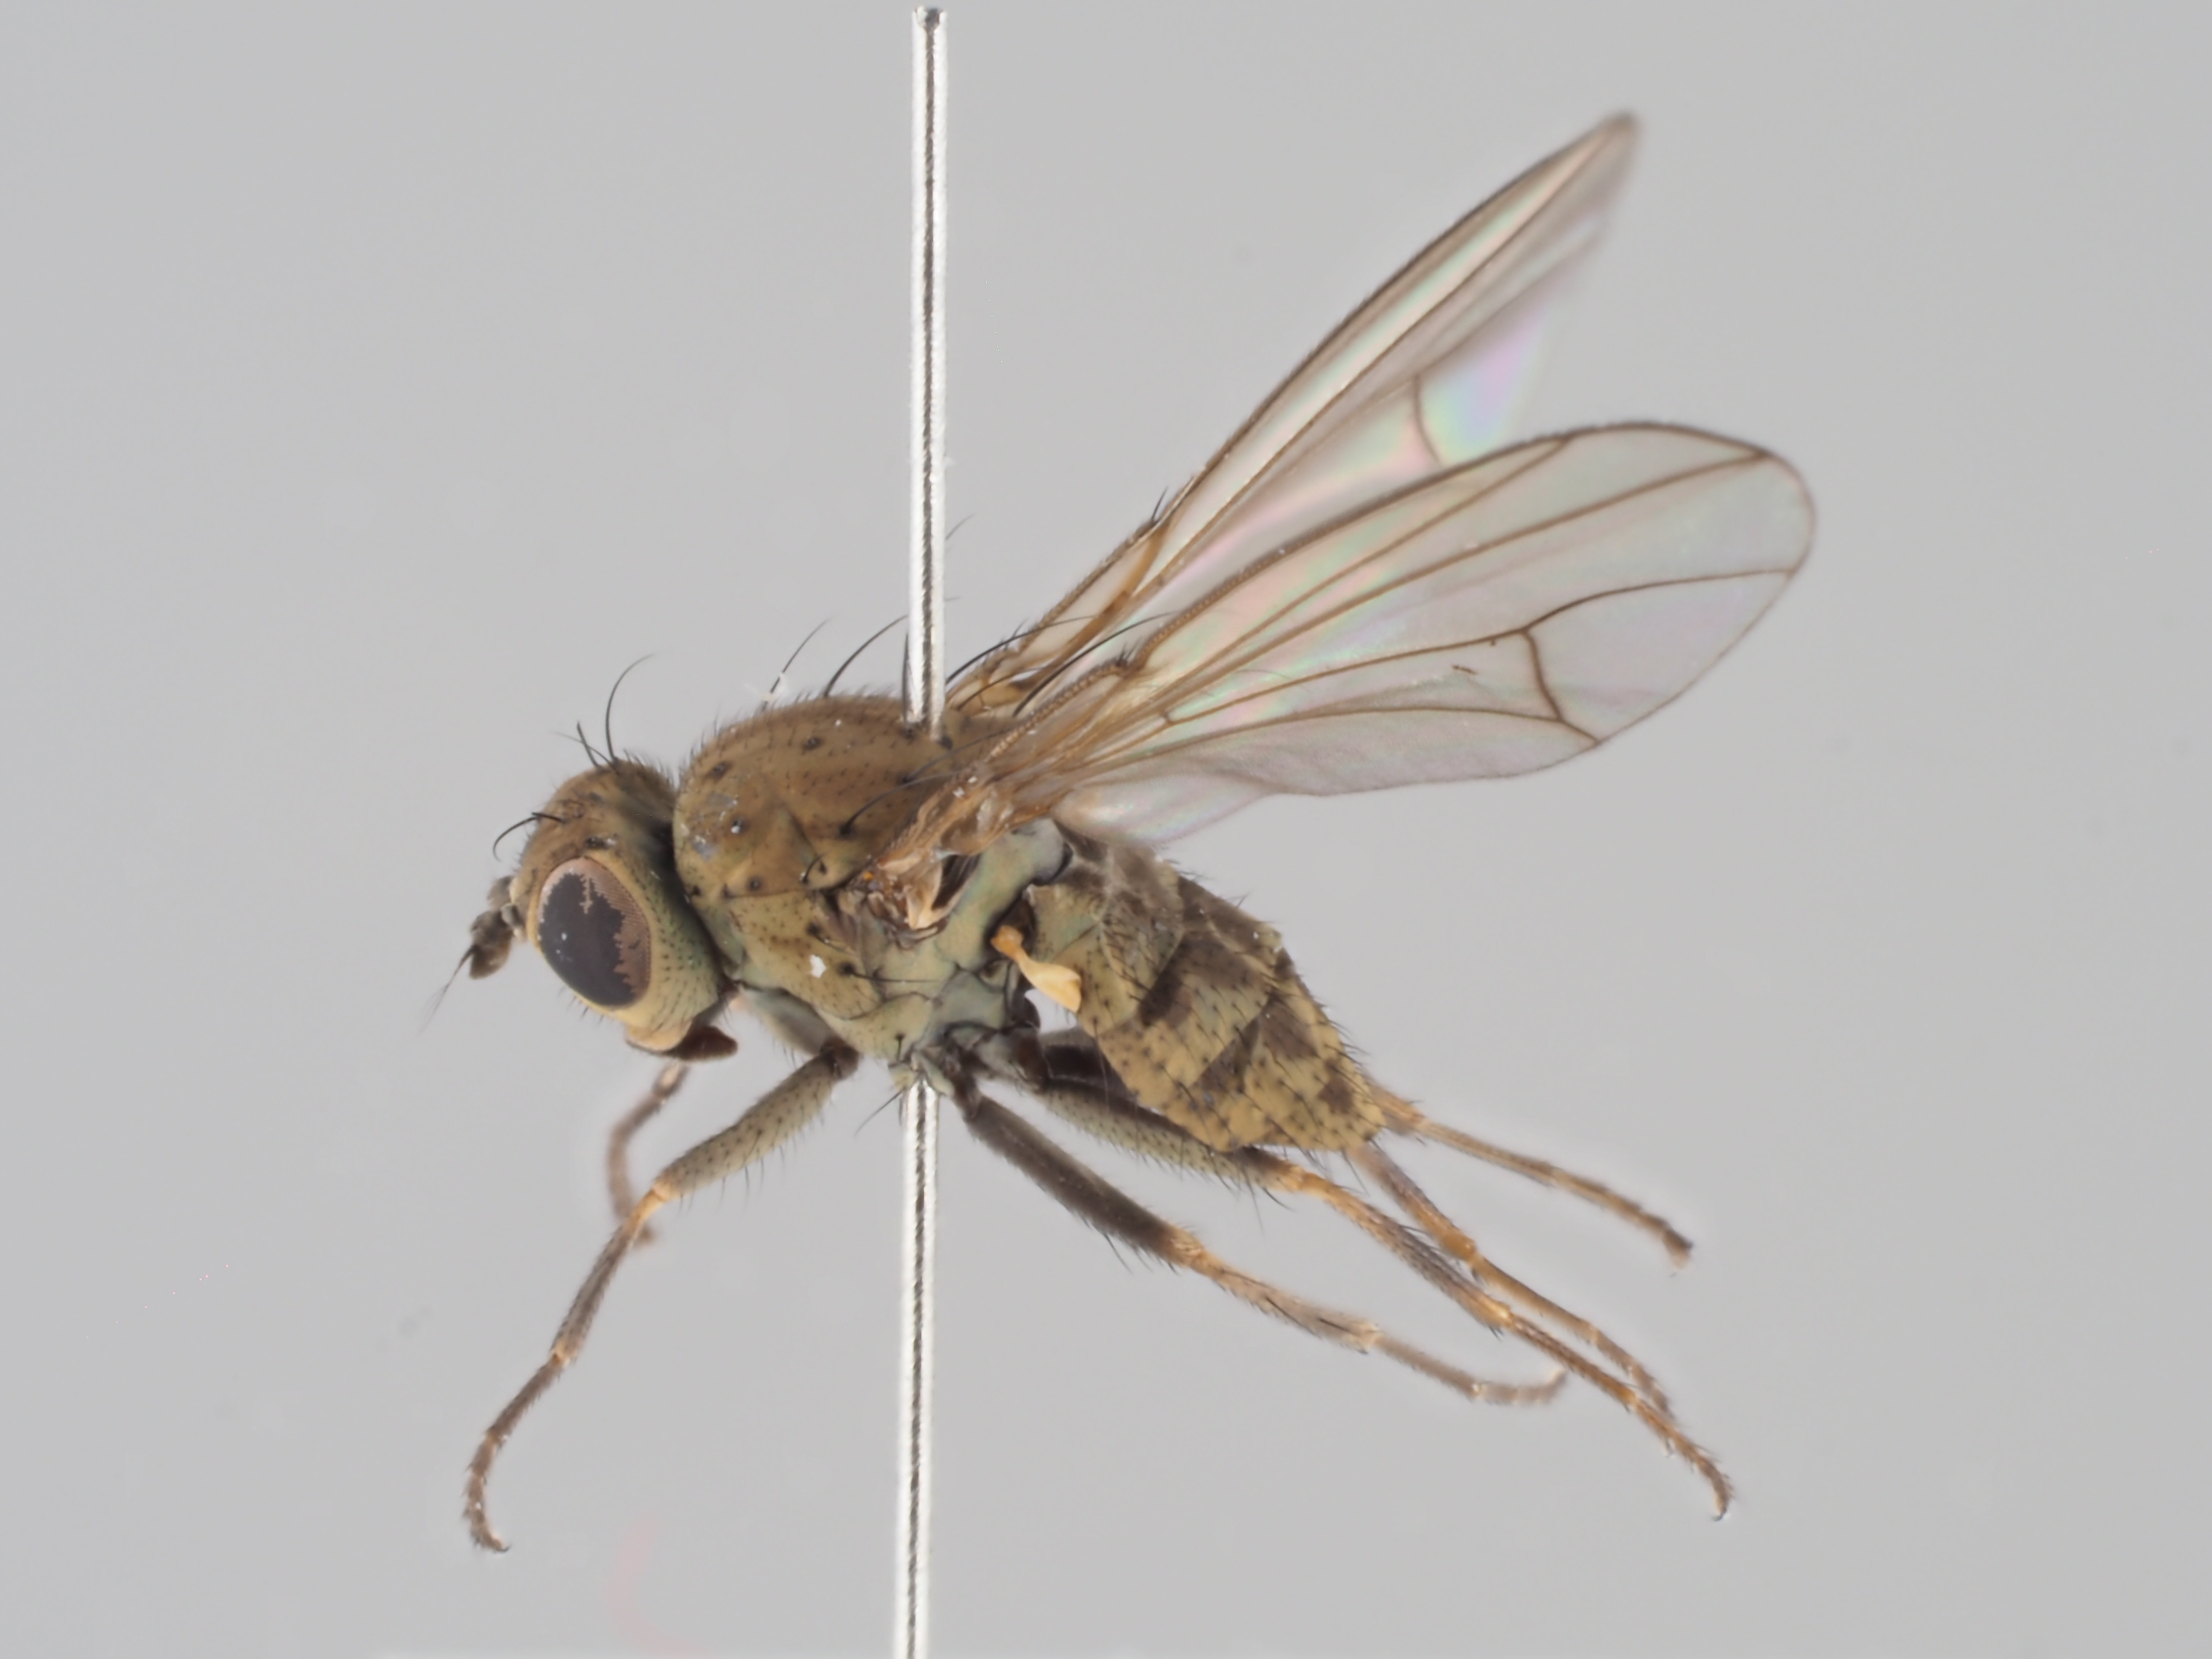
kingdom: Animalia
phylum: Arthropoda
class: Insecta
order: Diptera
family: Ephydridae
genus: Notiphila
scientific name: Notiphila dorsata
